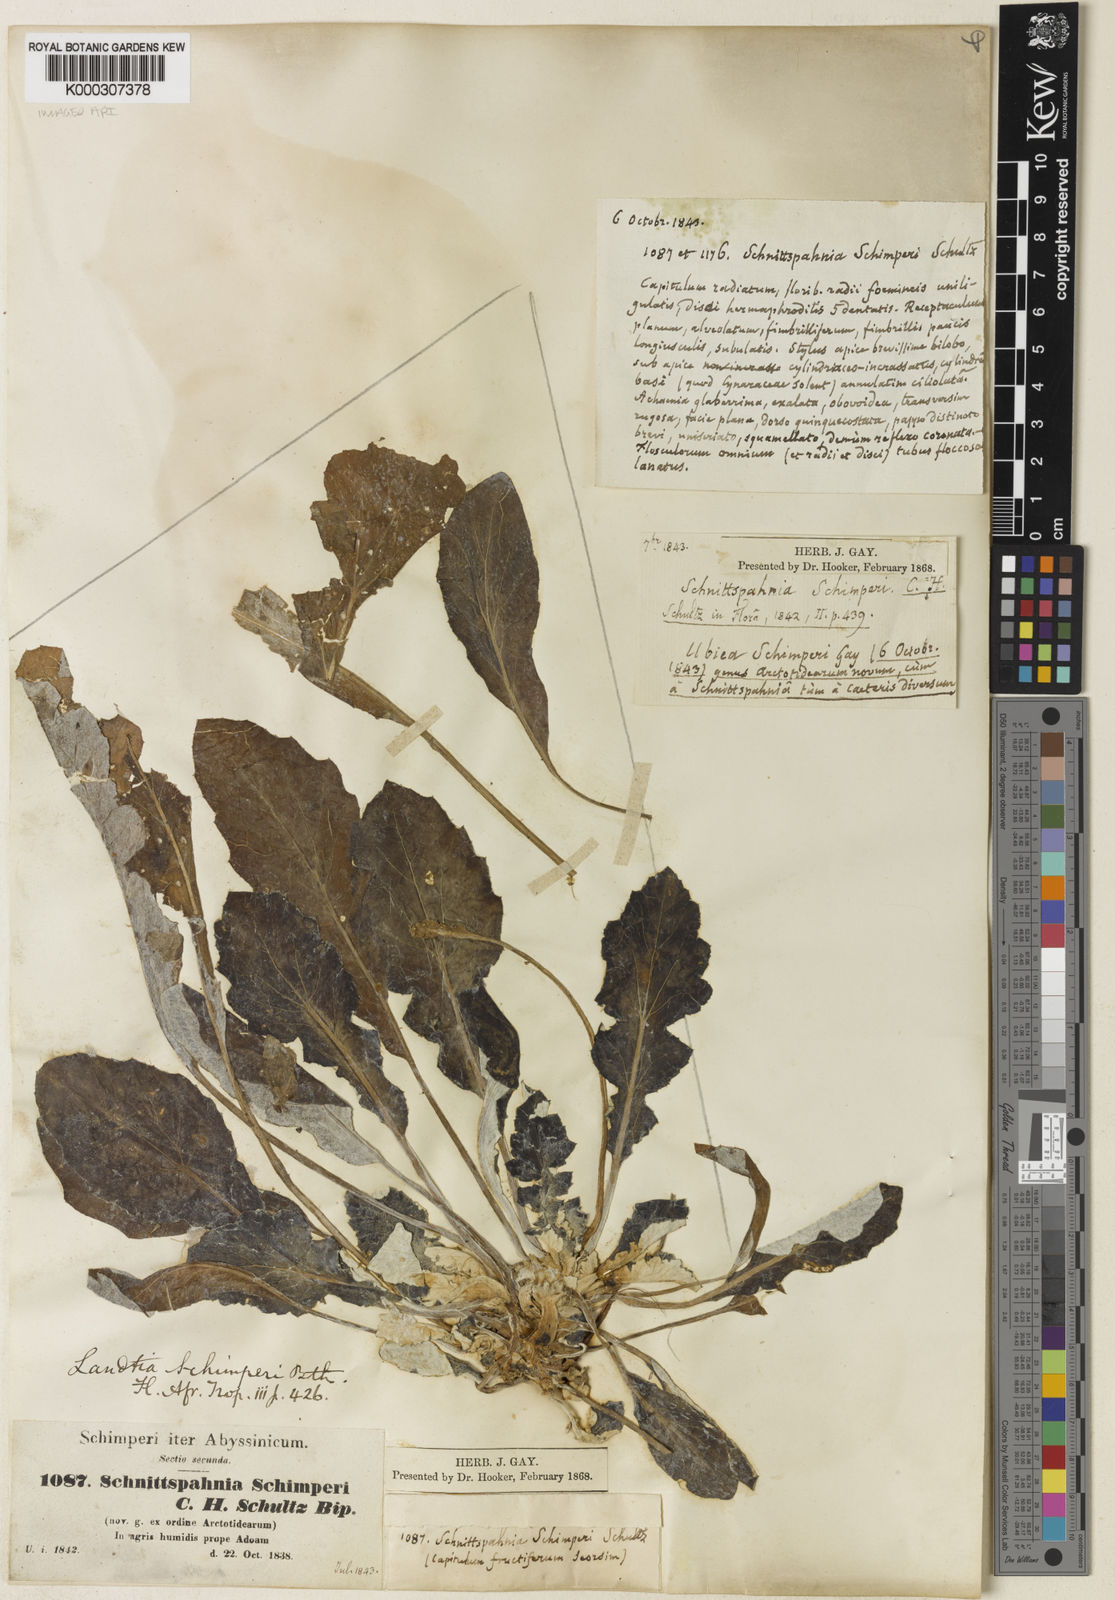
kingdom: Plantae
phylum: Tracheophyta
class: Magnoliopsida
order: Asterales
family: Asteraceae
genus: Haplocarpha
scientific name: Haplocarpha schimperi
